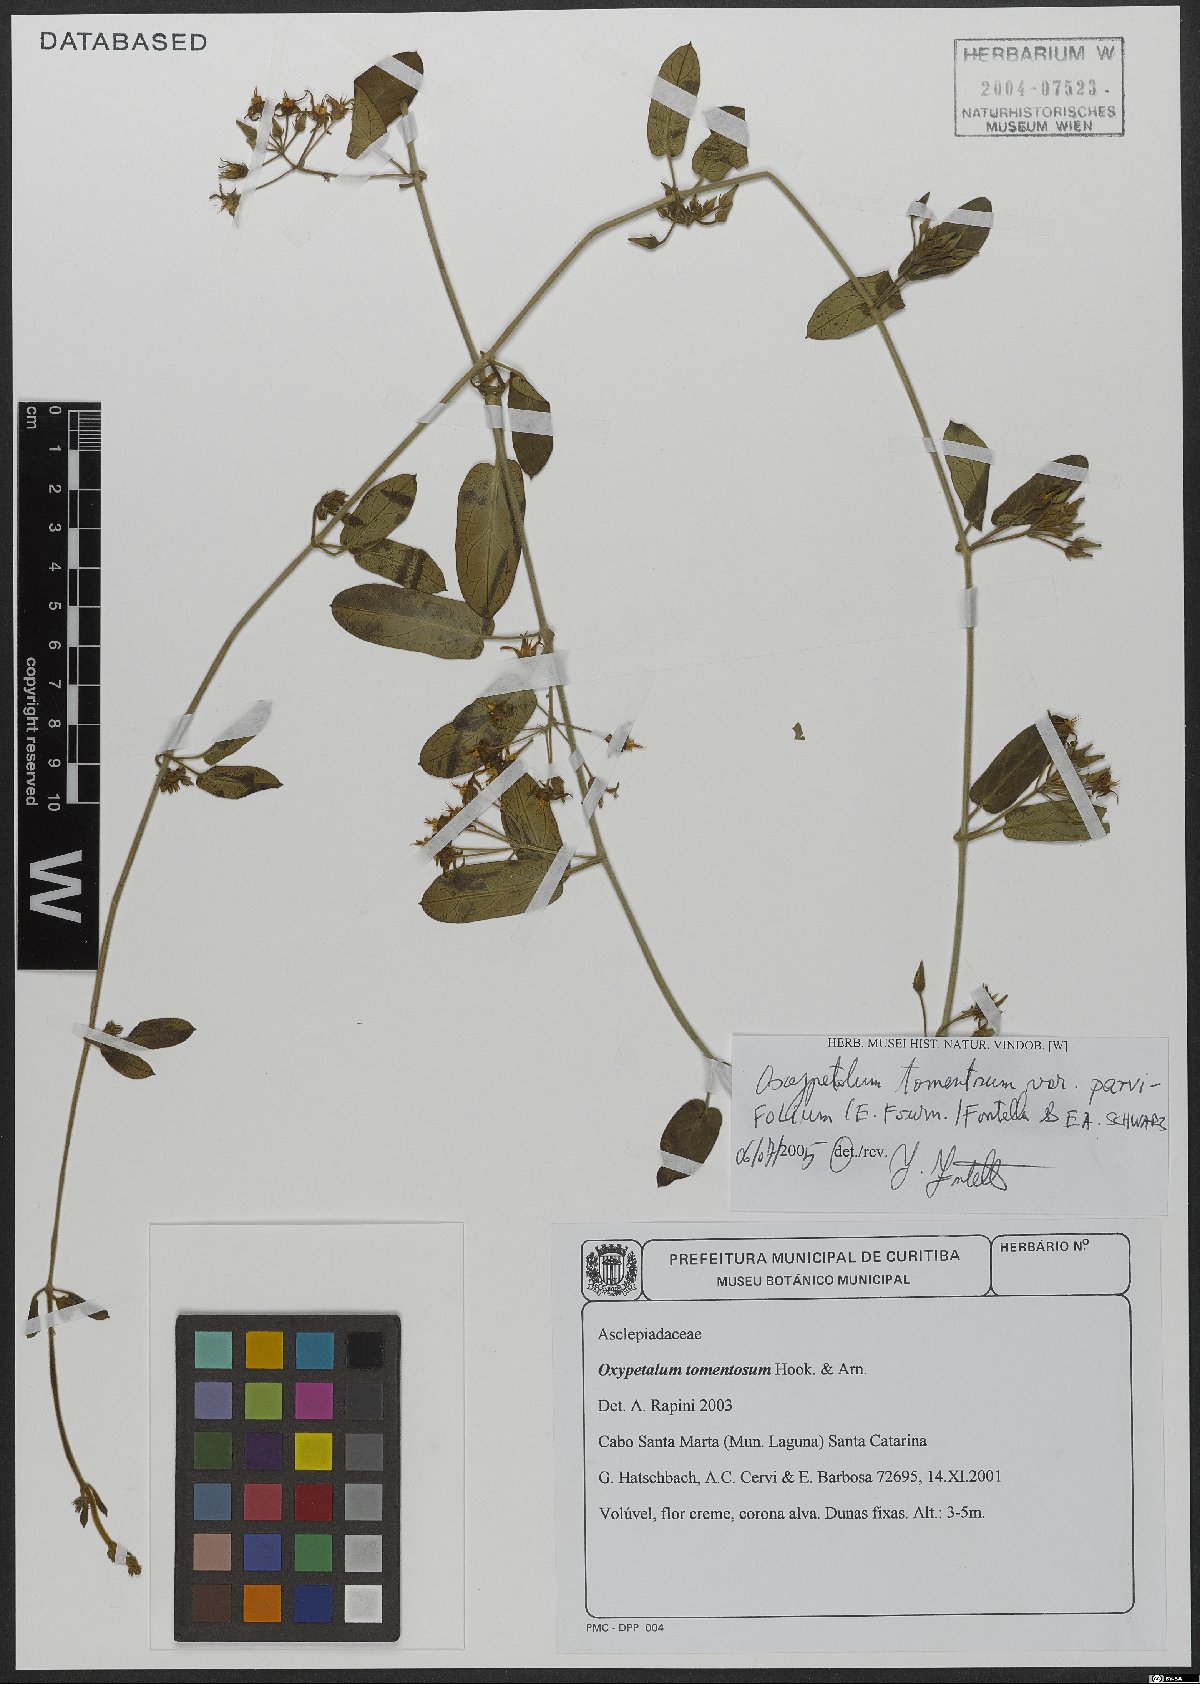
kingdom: Plantae
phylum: Tracheophyta
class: Magnoliopsida
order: Gentianales
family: Apocynaceae
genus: Oxypetalum
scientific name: Oxypetalum tomentosum
